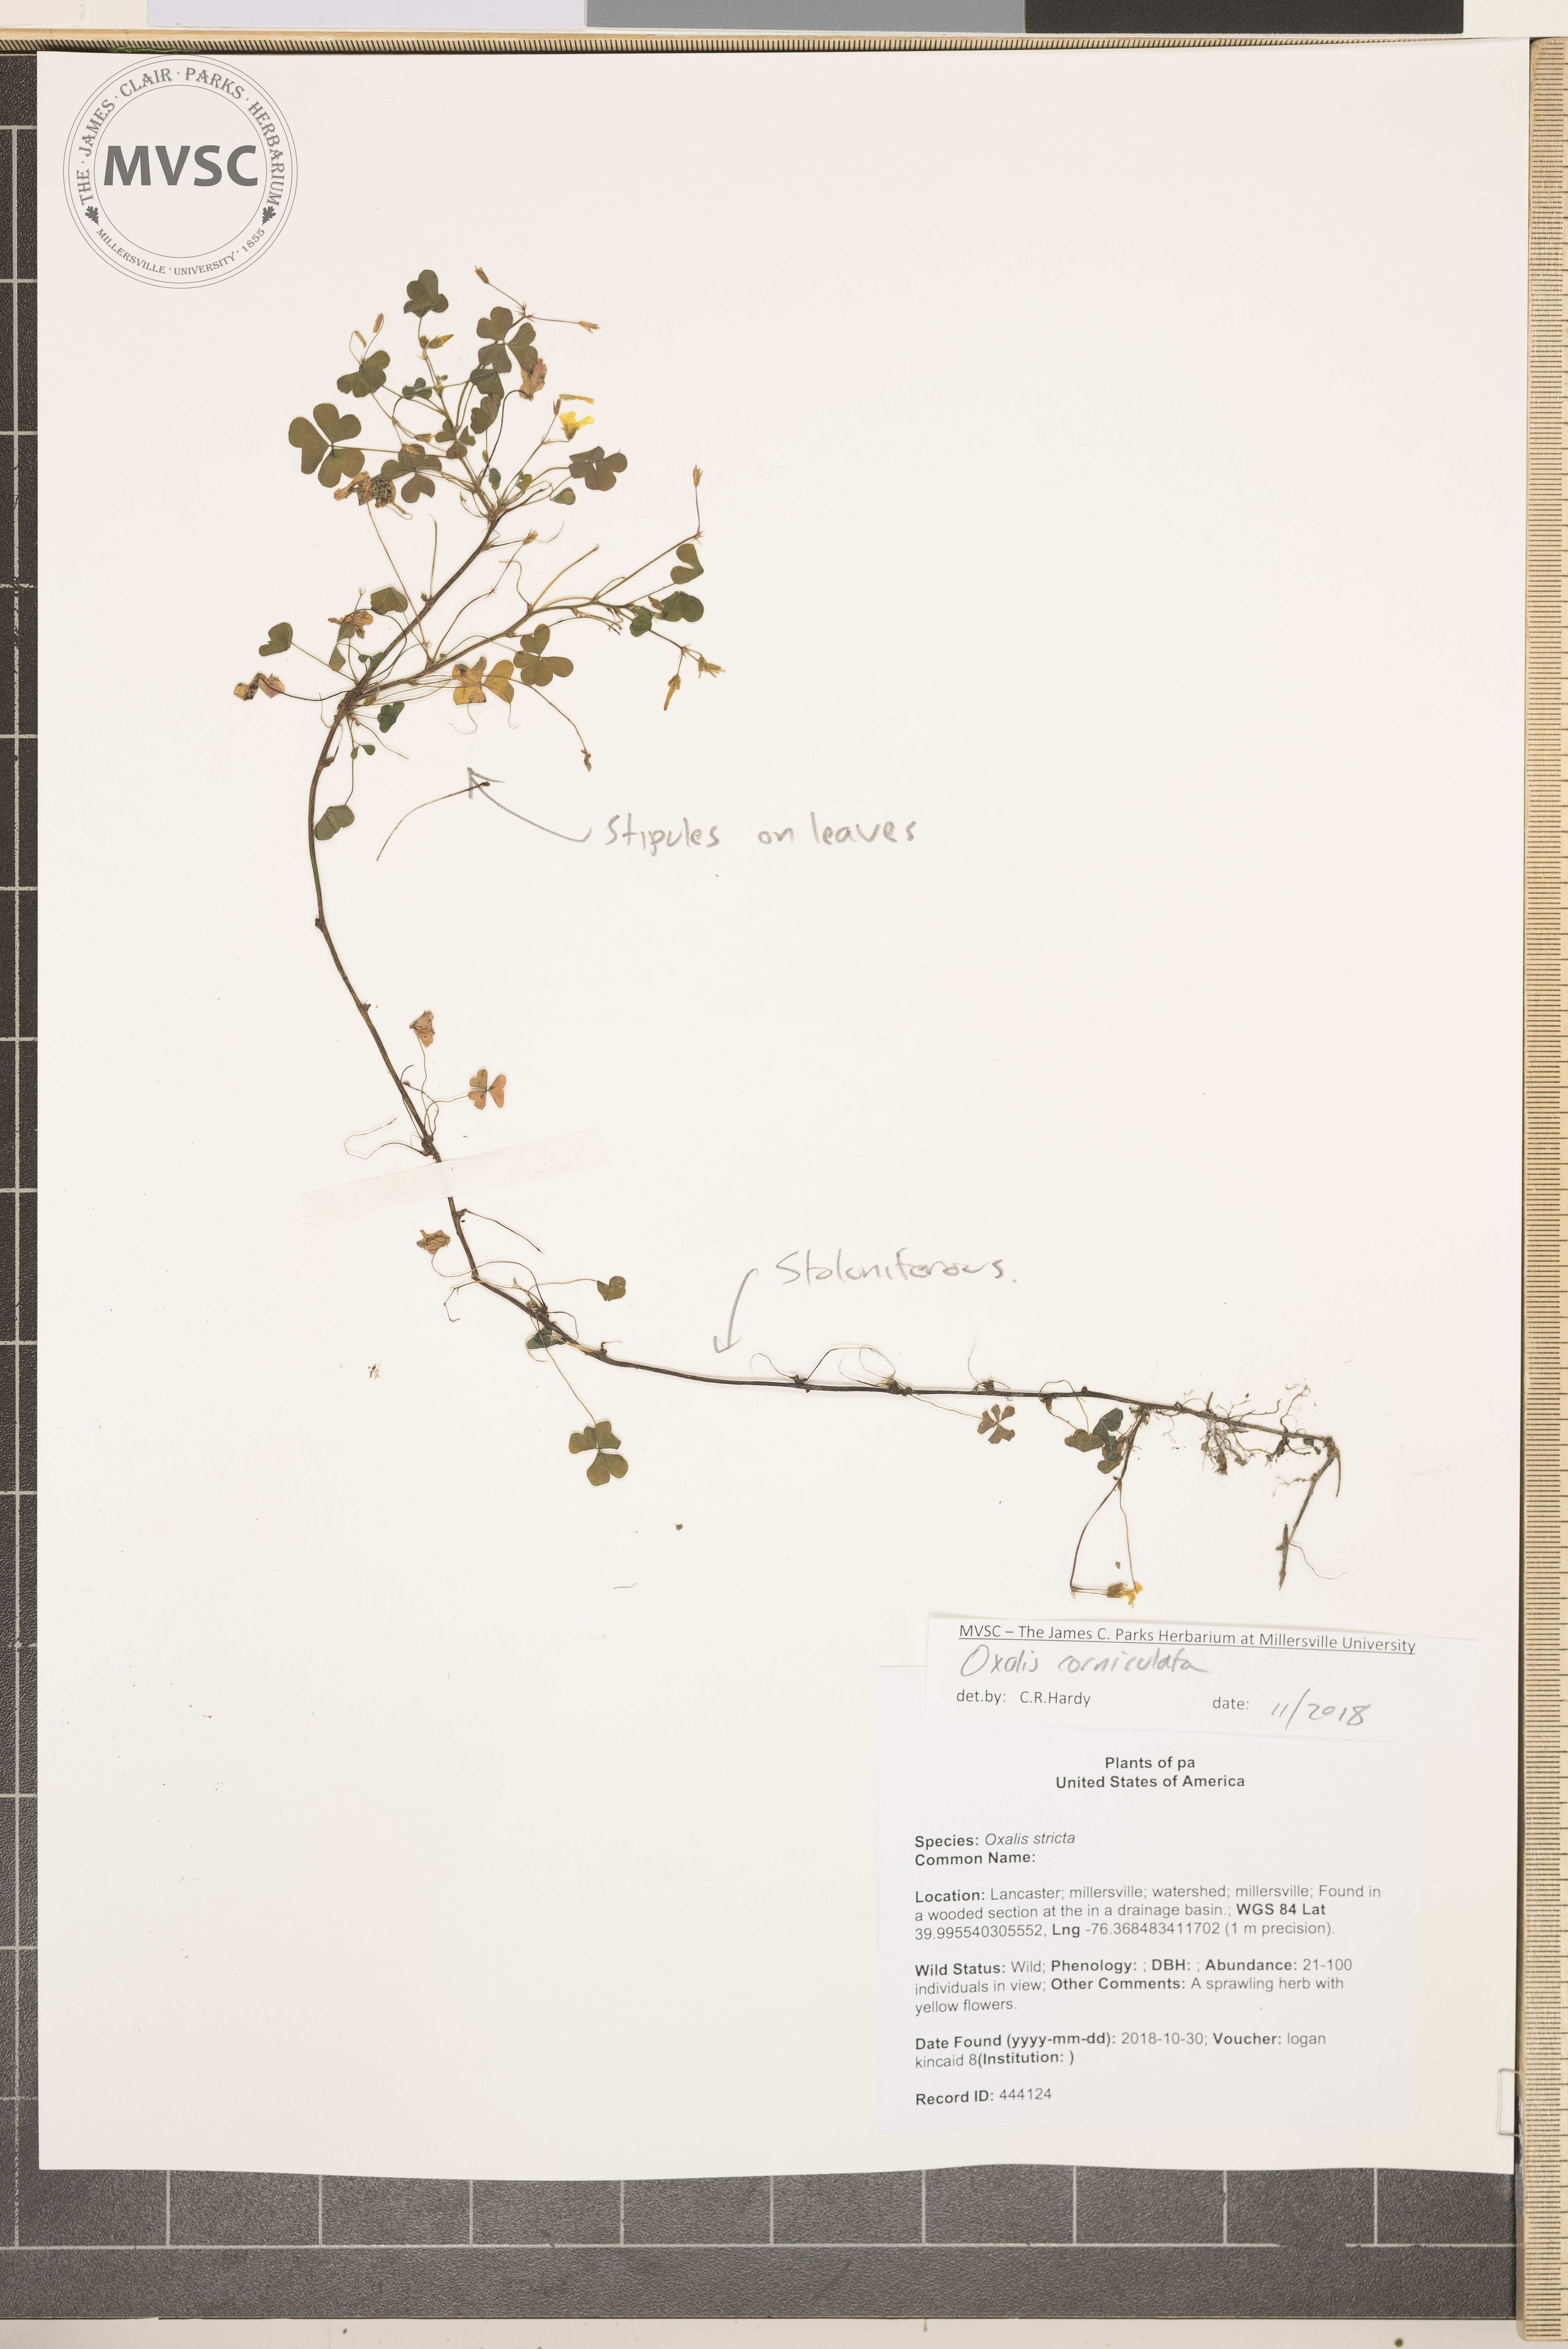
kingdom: Plantae
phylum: Tracheophyta
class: Magnoliopsida
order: Oxalidales
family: Oxalidaceae
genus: Oxalis
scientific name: Oxalis corniculata
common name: Procumbent yellow-sorrel
